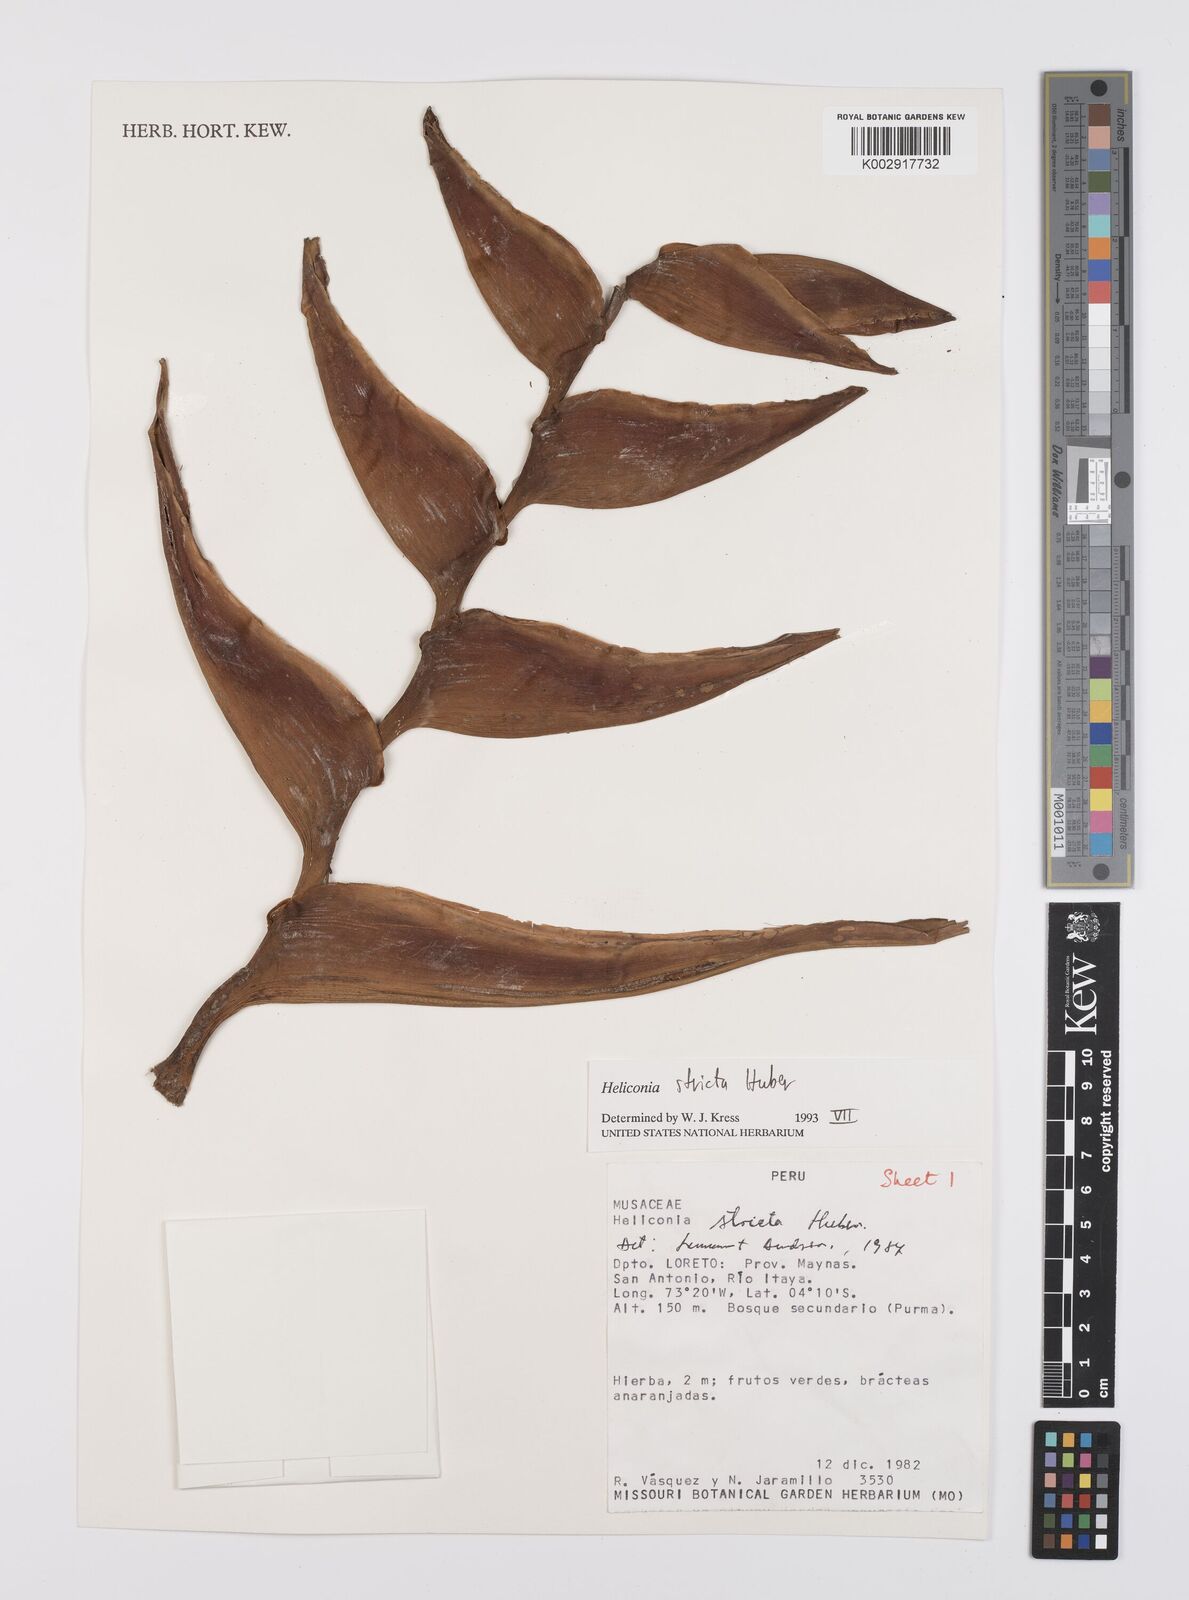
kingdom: Plantae
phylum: Tracheophyta
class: Liliopsida
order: Zingiberales
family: Heliconiaceae
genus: Heliconia
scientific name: Heliconia stricta
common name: Small lobster claw
